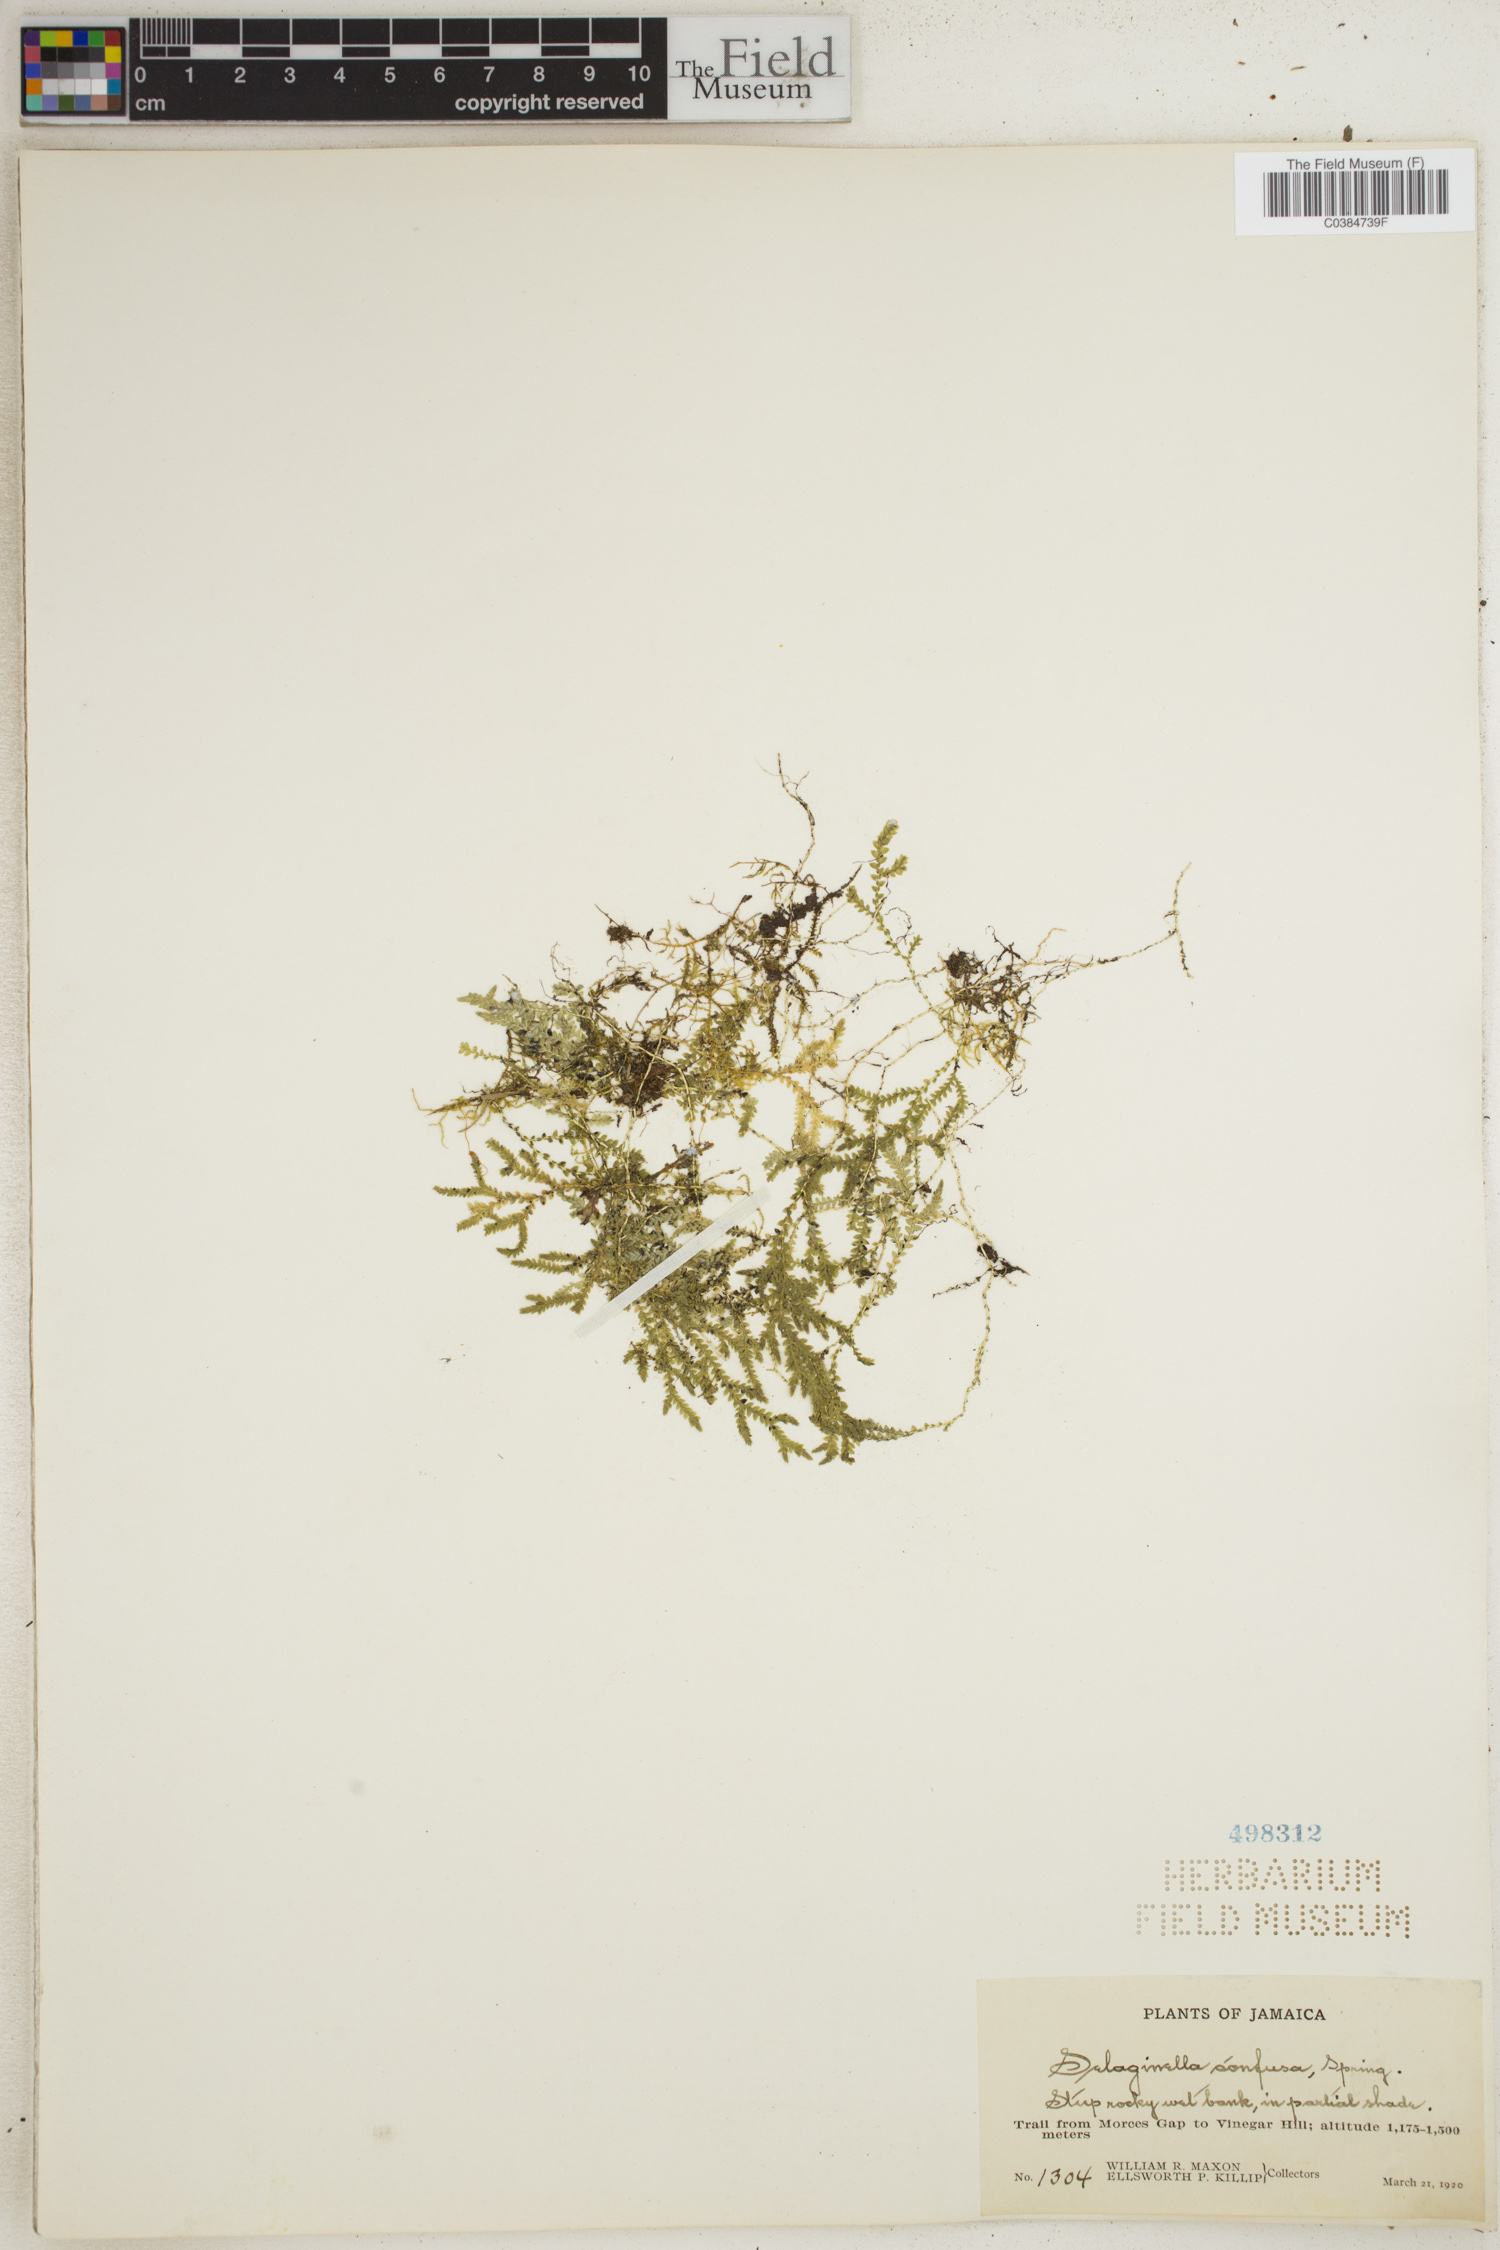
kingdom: Plantae
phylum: Tracheophyta
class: Lycopodiopsida
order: Selaginellales
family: Selaginellaceae
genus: Selaginella
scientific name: Selaginella confusa
